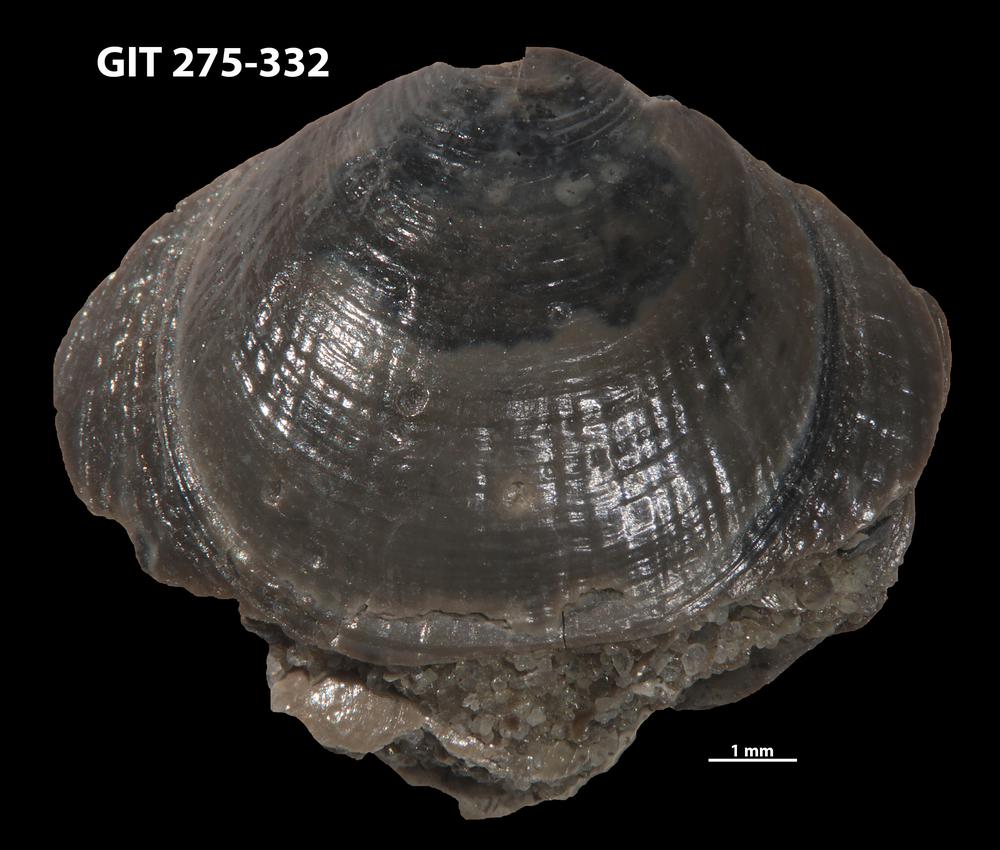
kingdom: Animalia
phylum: Brachiopoda
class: Lingulata
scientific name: Lingulata
